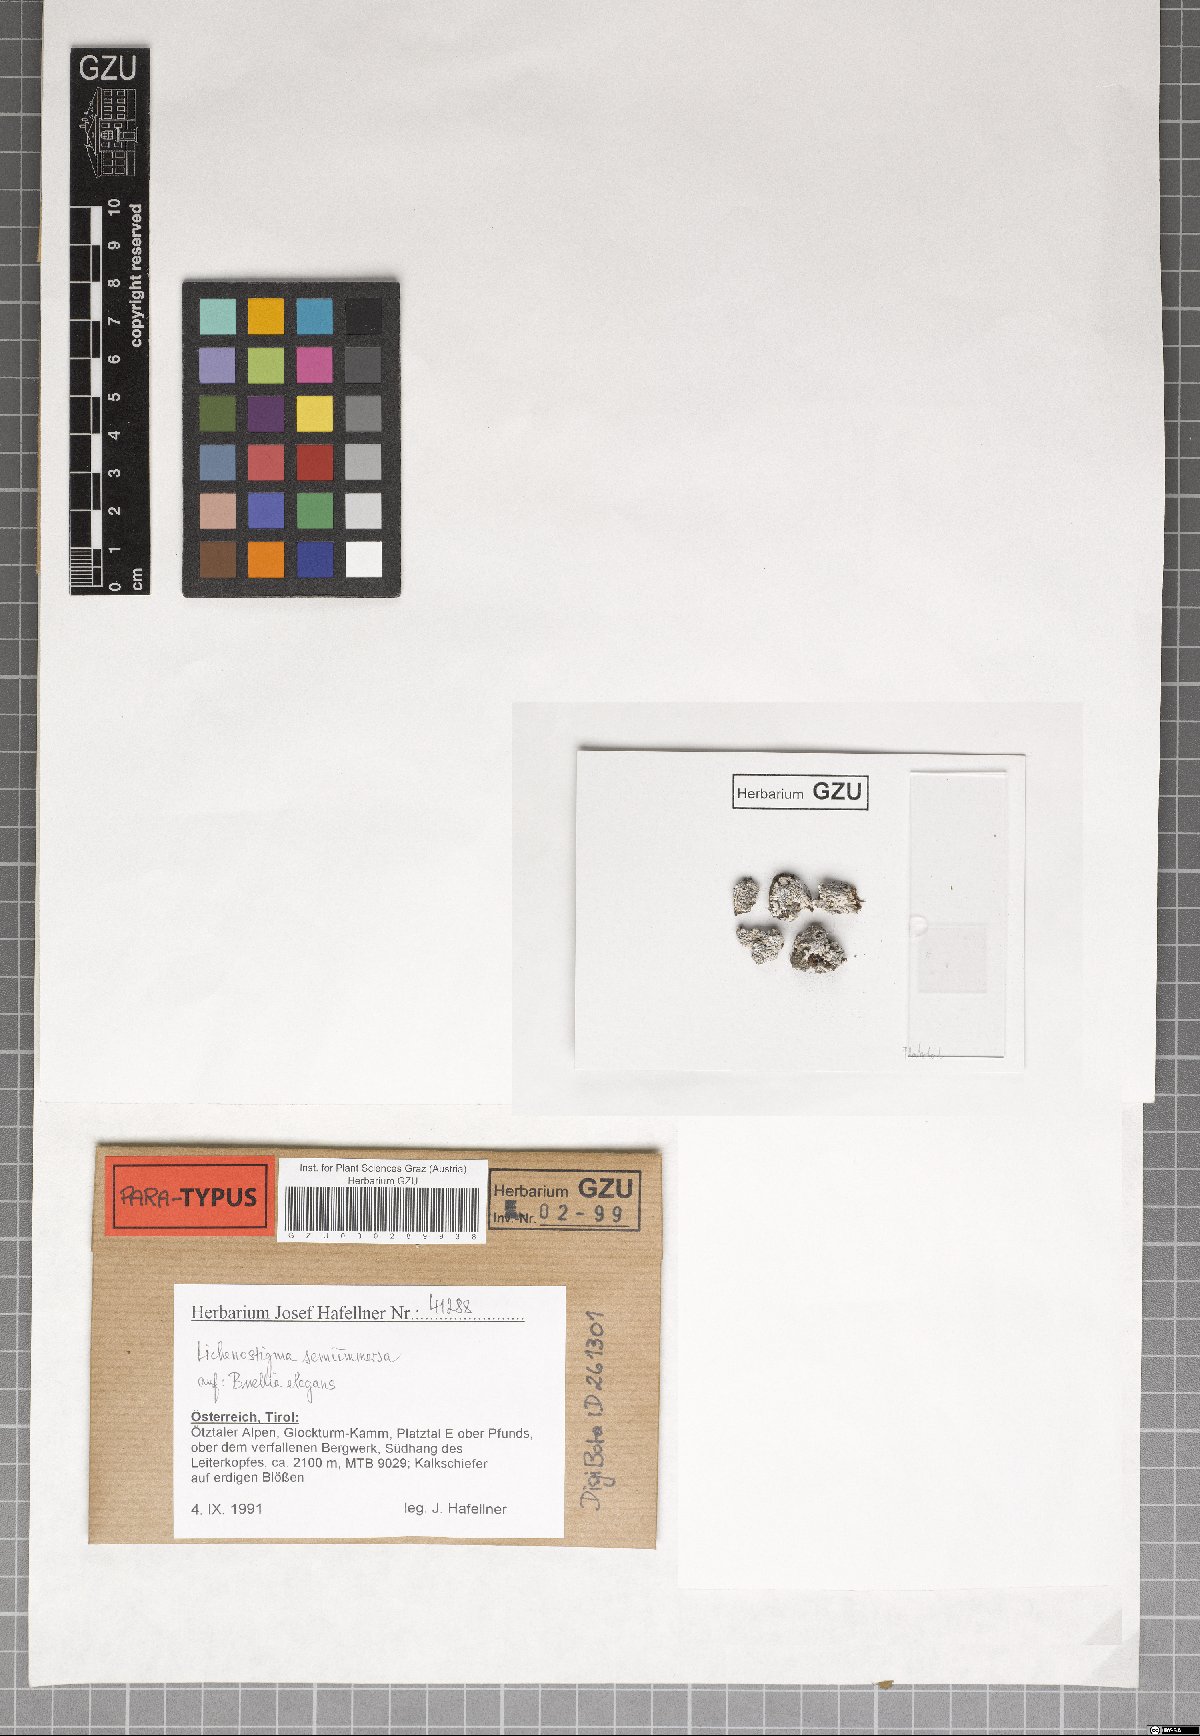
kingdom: Fungi
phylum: Ascomycota
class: Dothideomycetes
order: Lichenotheliales
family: Lichenotheliaceae
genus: Lichenostigma
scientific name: Lichenostigma semi-immersum
